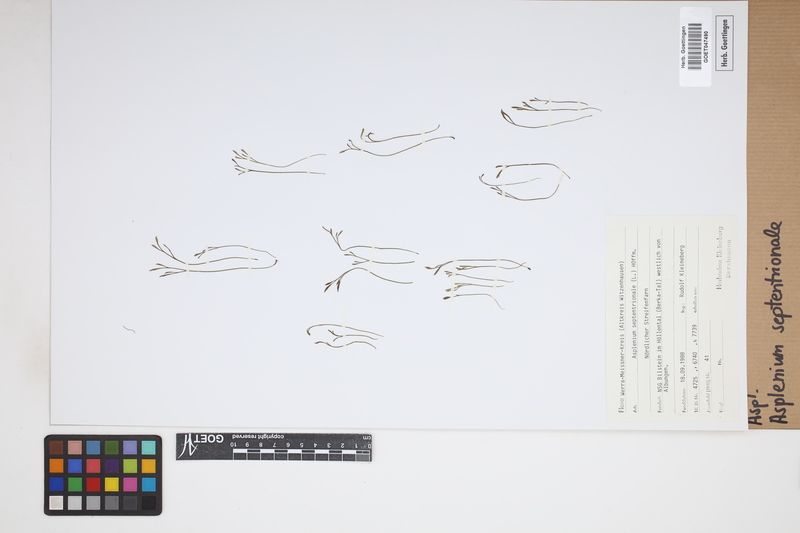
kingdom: Plantae
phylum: Tracheophyta
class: Polypodiopsida
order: Polypodiales
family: Aspleniaceae
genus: Asplenium
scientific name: Asplenium septentrionale
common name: Forked spleenwort
